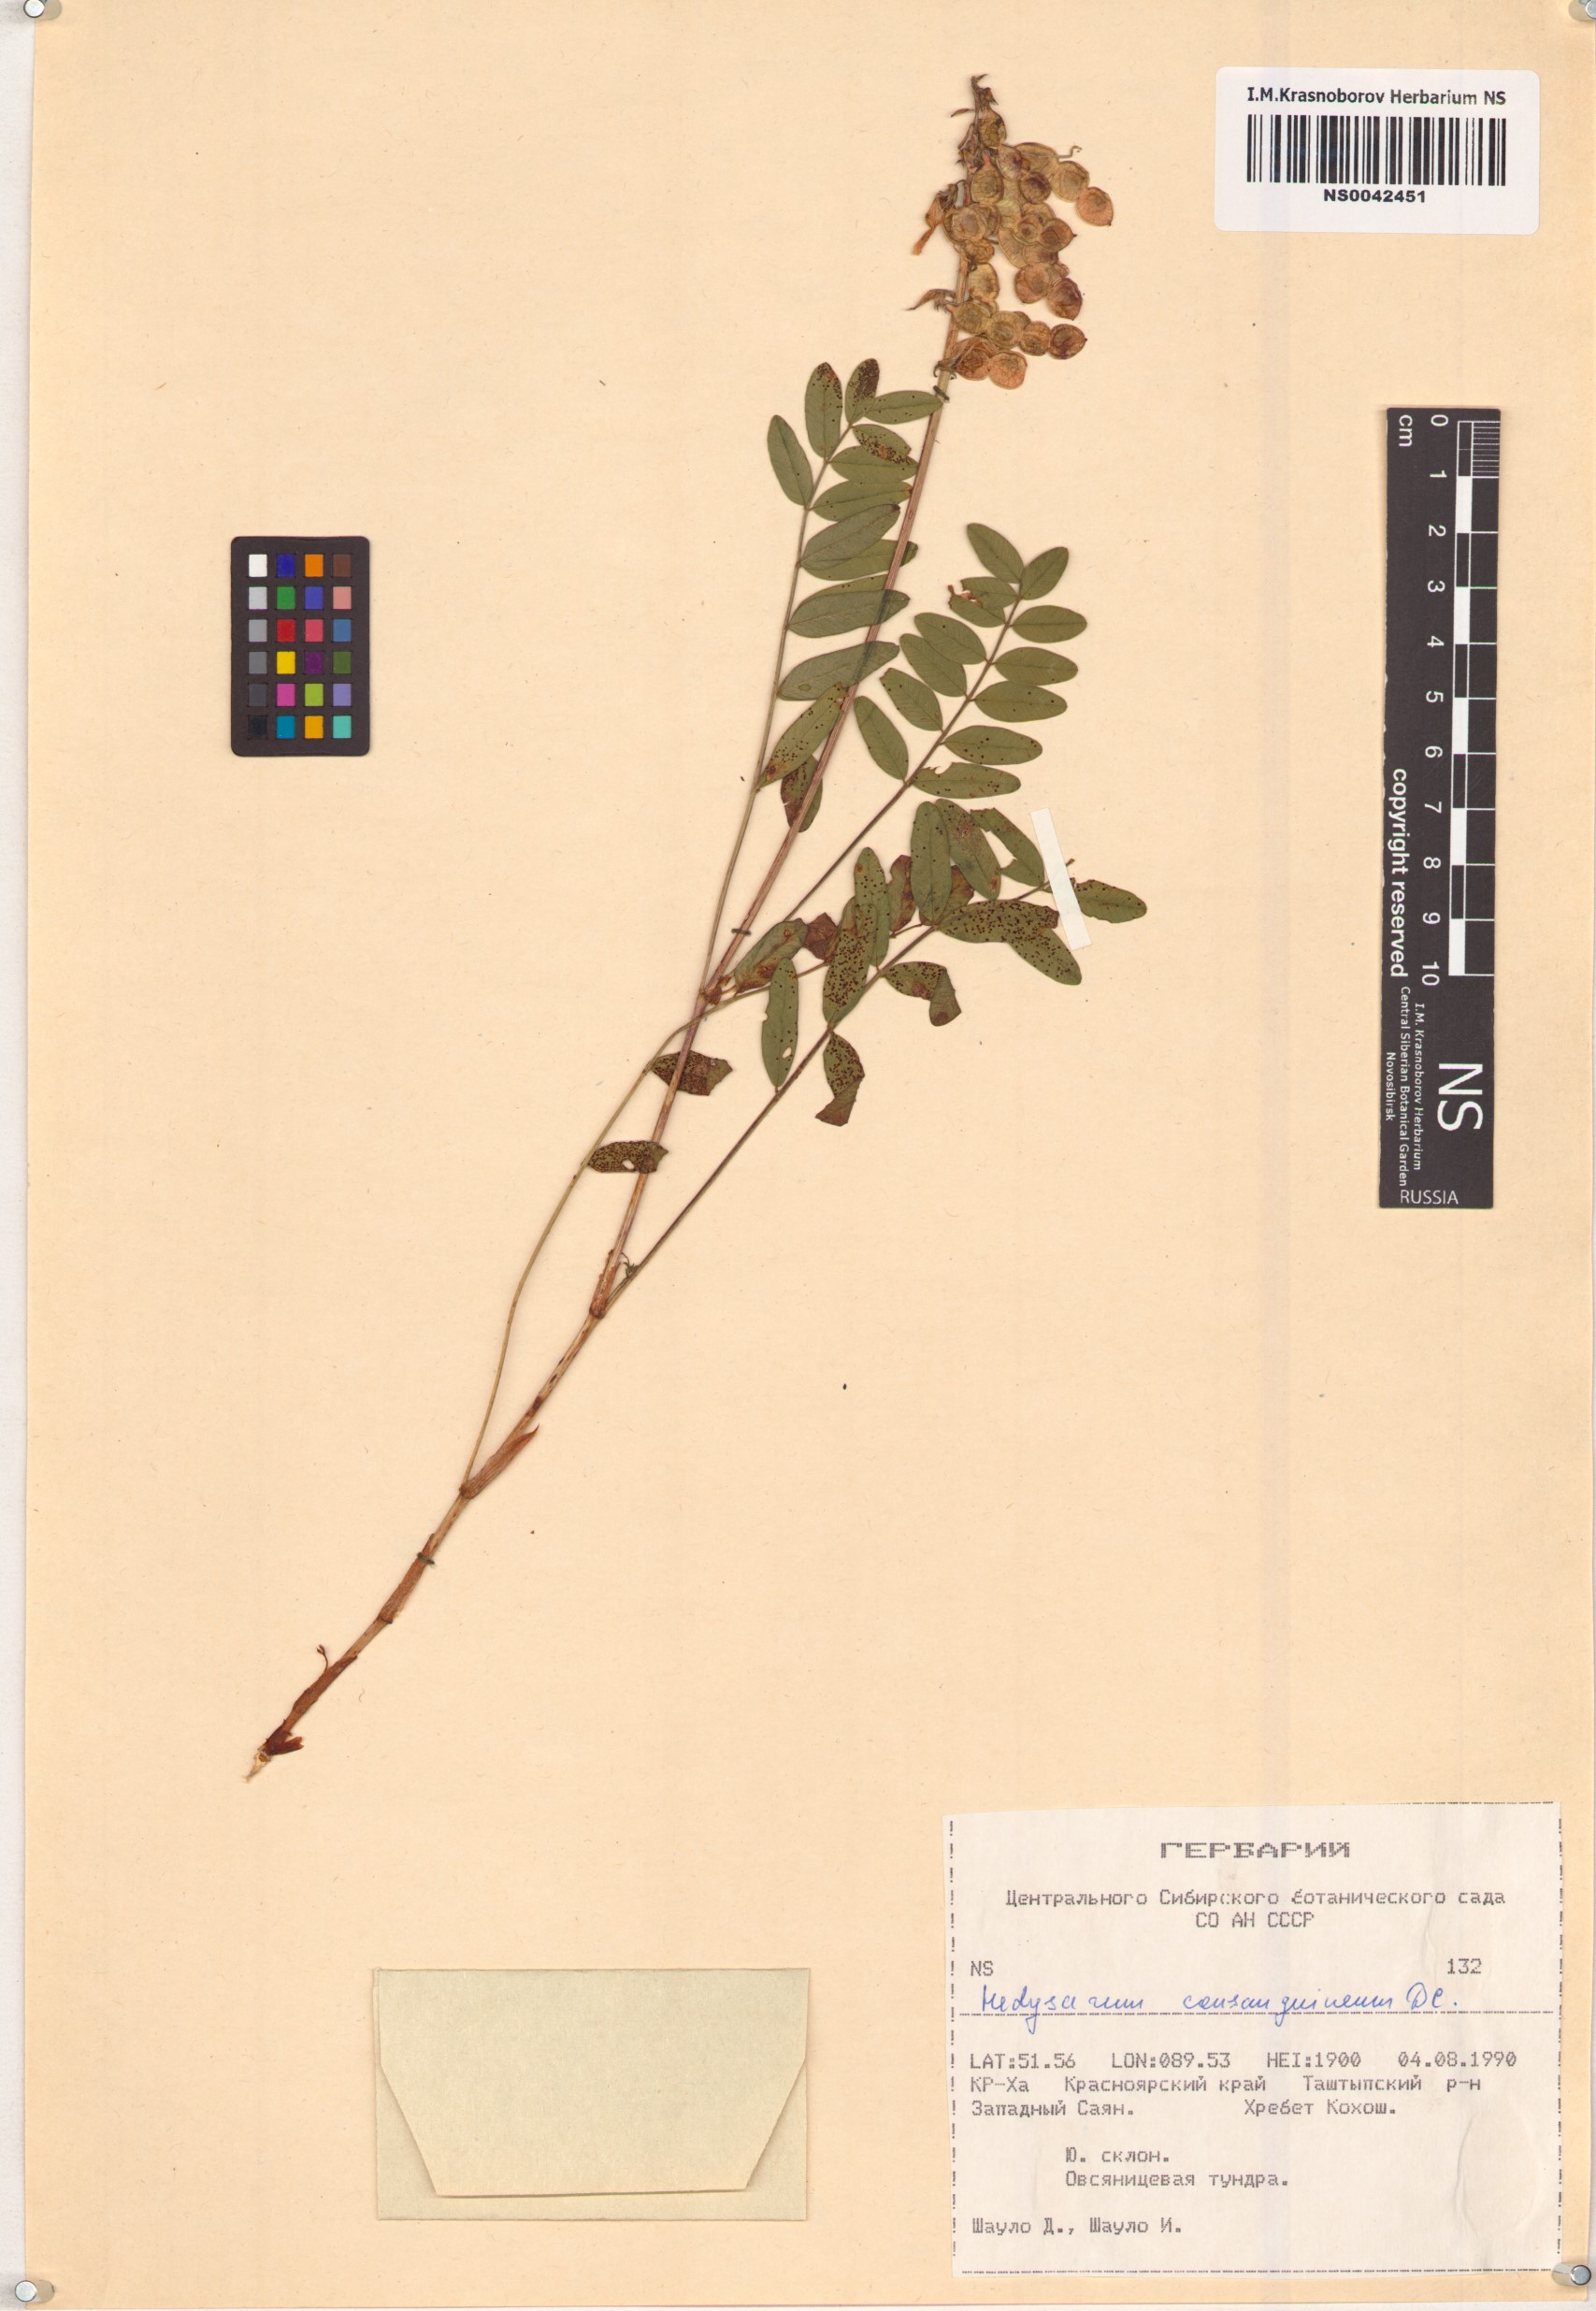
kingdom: Plantae
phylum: Tracheophyta
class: Magnoliopsida
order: Fabales
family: Fabaceae
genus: Hedysarum
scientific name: Hedysarum consanguineum
